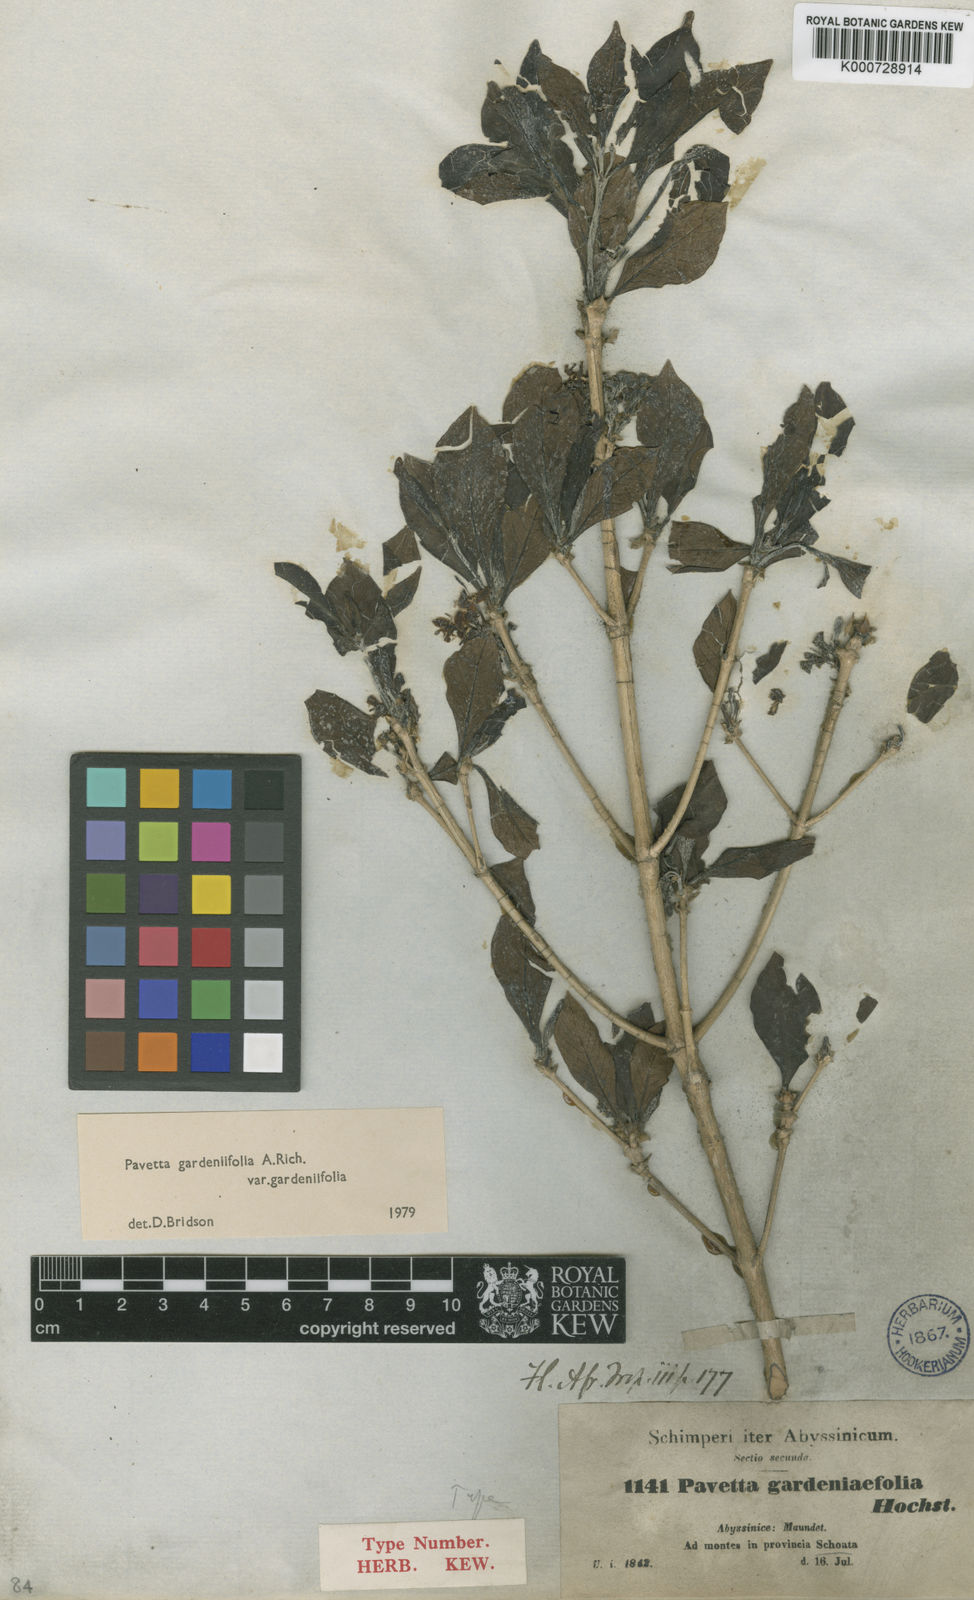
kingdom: Plantae
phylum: Tracheophyta
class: Magnoliopsida
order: Gentianales
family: Rubiaceae
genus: Pavetta
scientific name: Pavetta gardeniifolia
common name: Common brides-bush
